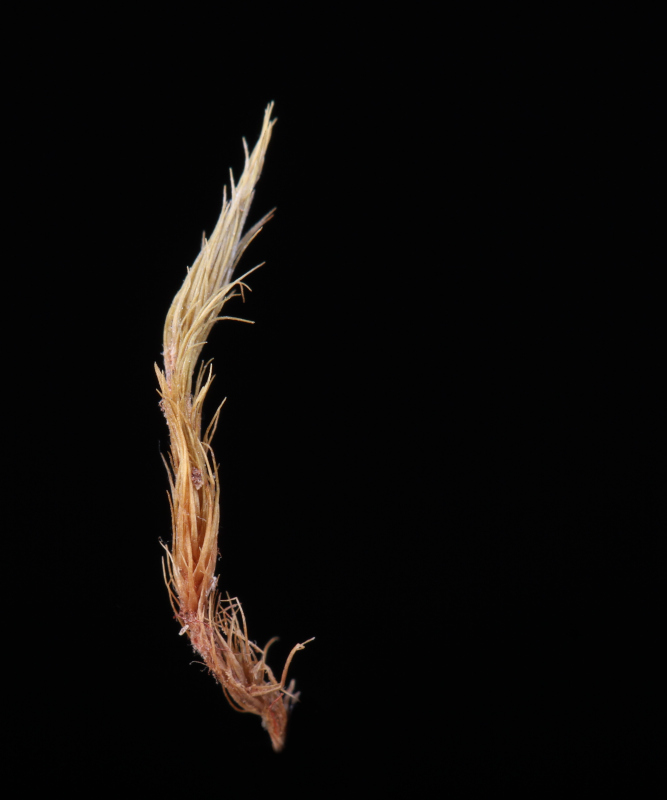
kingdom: Plantae
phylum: Bryophyta
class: Bryopsida
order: Dicranales
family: Leucobryaceae
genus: Campylopus
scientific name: Campylopus ericoides
